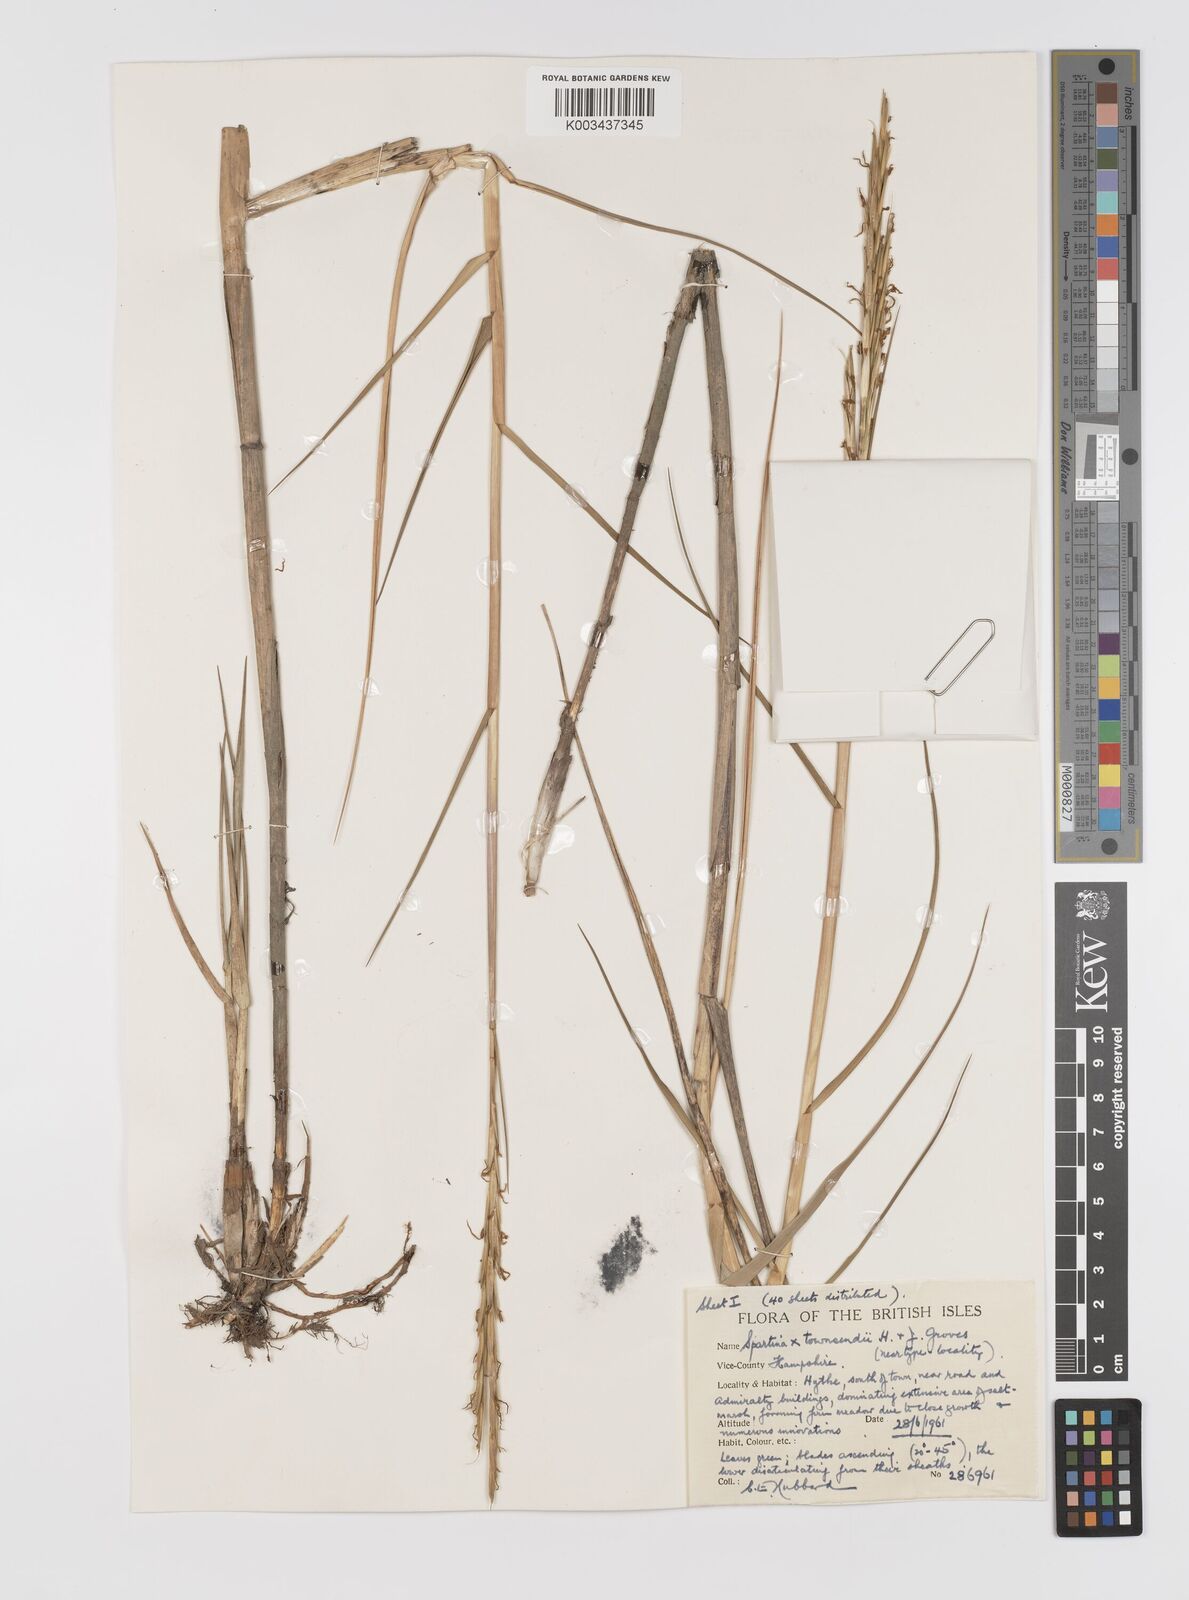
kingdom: Plantae
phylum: Tracheophyta
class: Liliopsida
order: Poales
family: Poaceae
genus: Sporobolus
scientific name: Sporobolus townsendii
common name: Townsend's cordgrass
